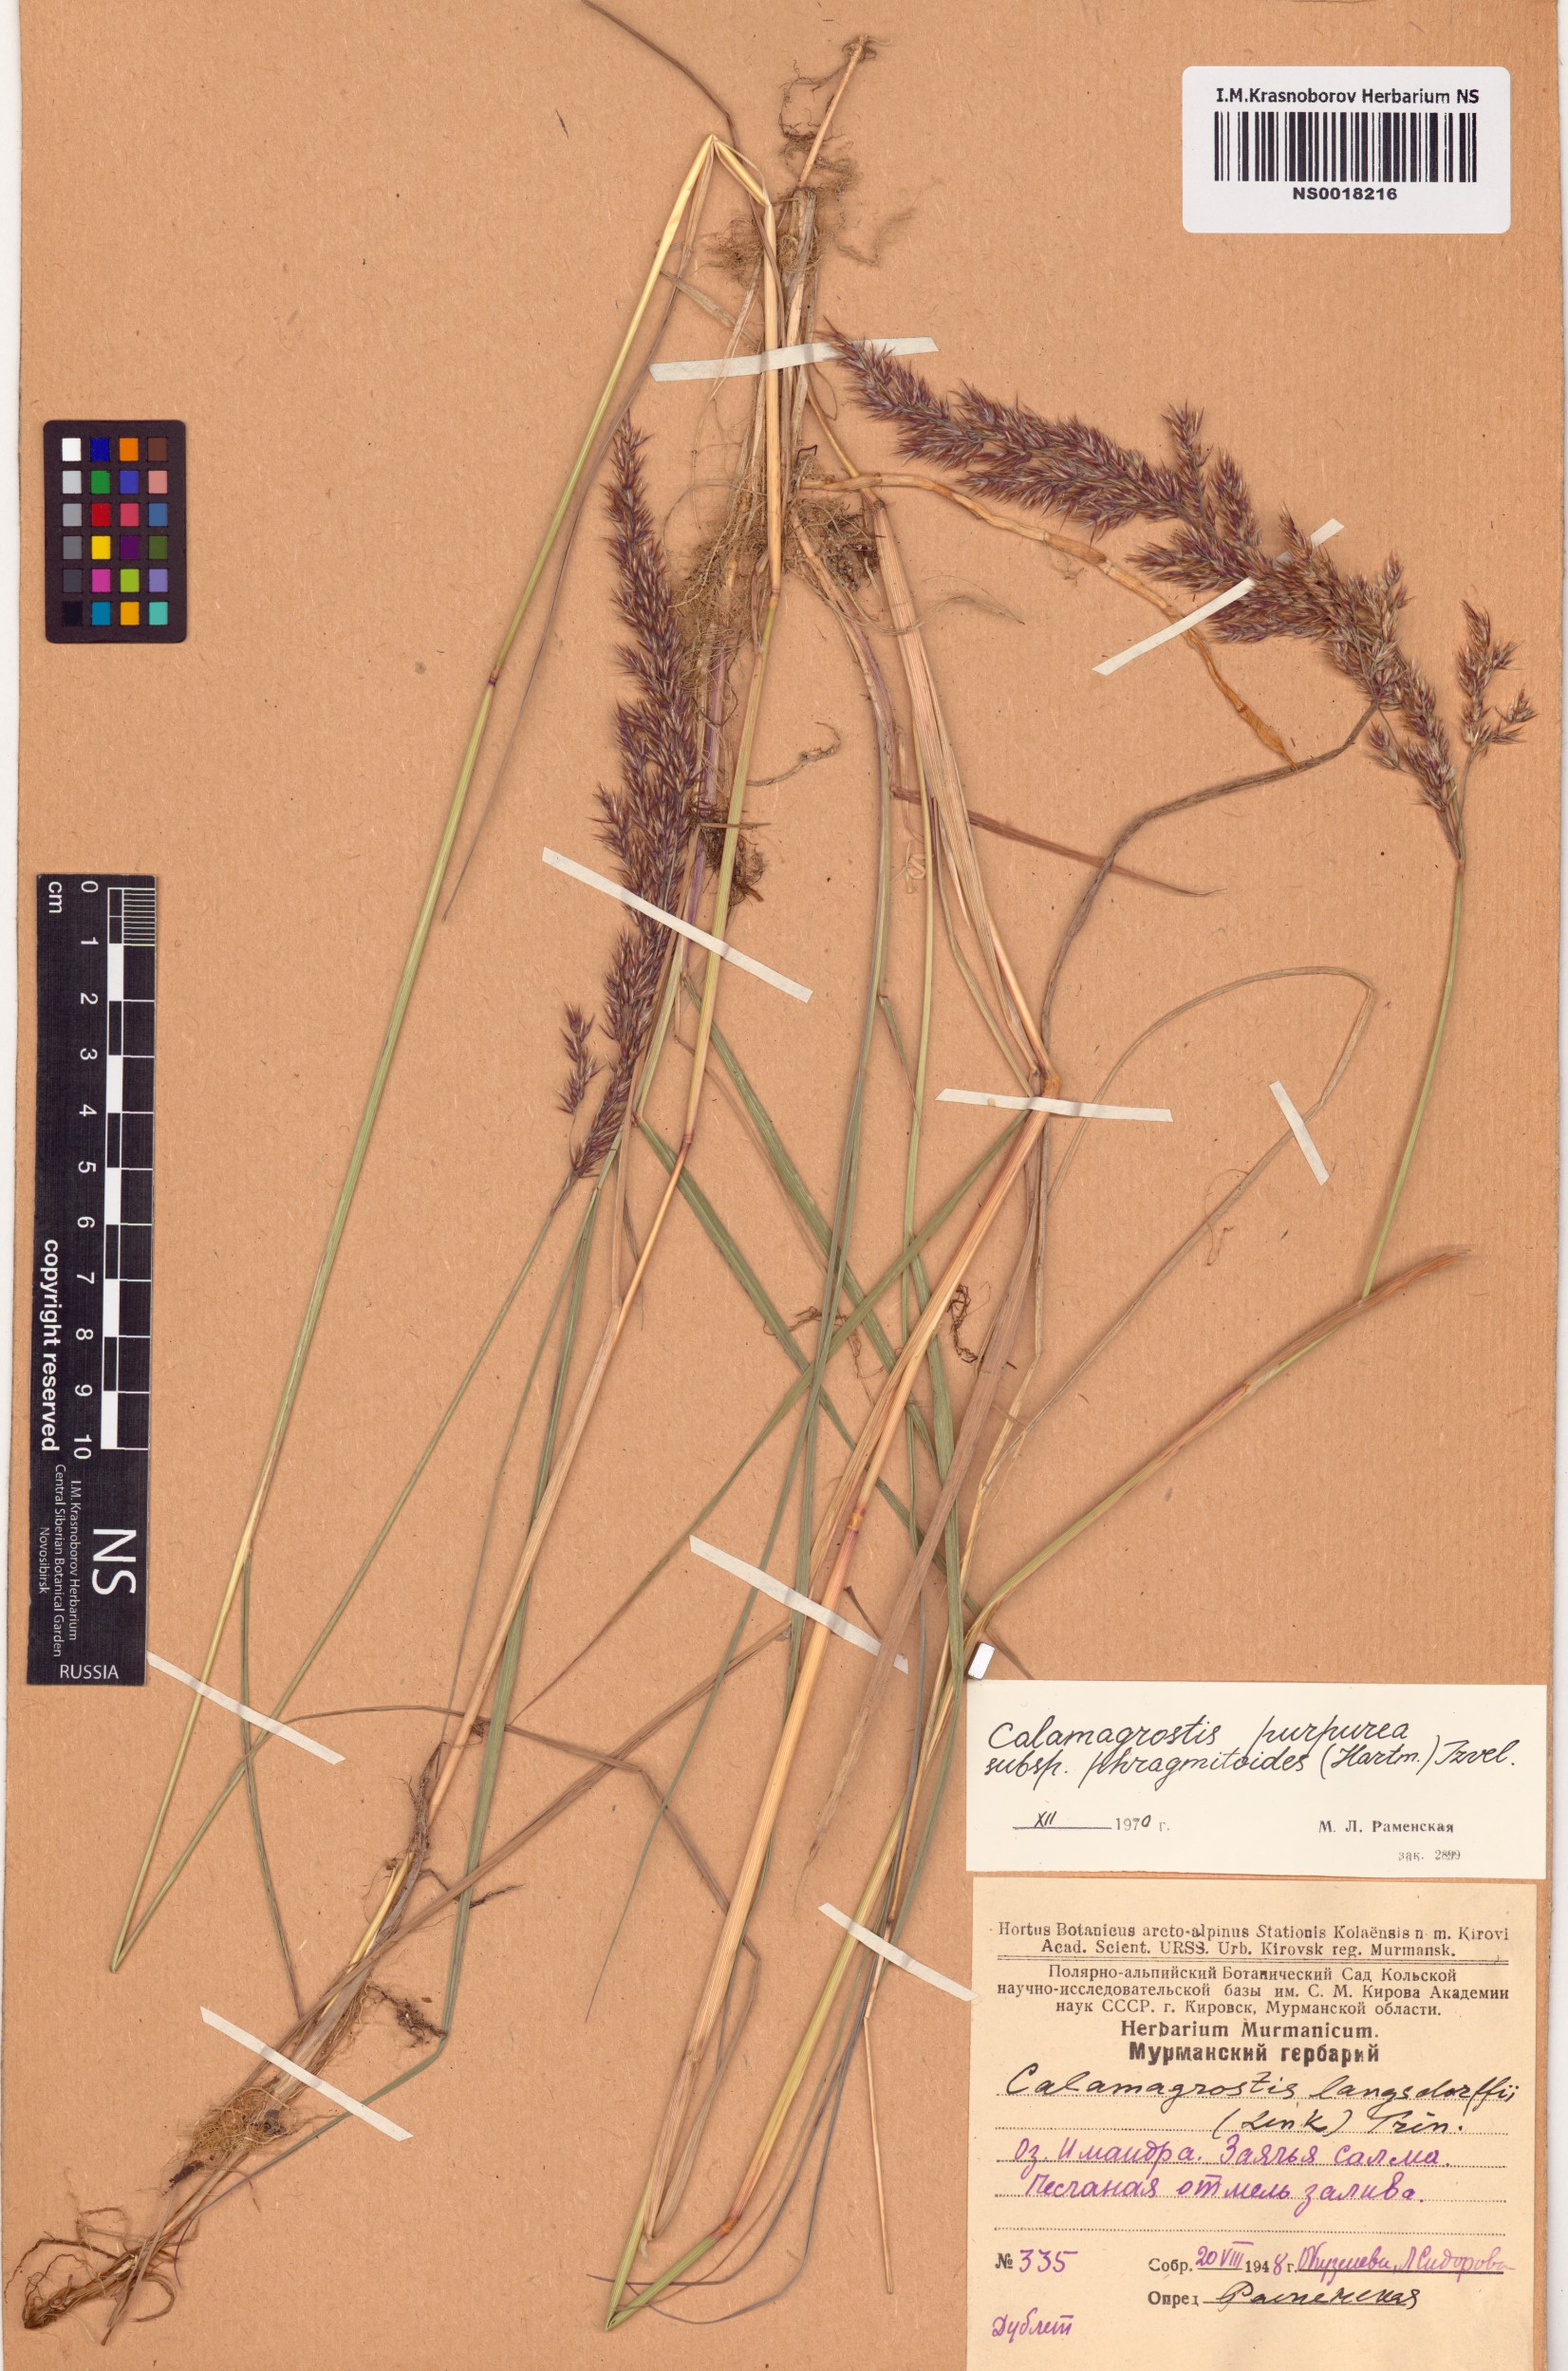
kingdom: Plantae
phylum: Tracheophyta
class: Liliopsida
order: Poales
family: Poaceae
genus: Calamagrostis
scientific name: Calamagrostis purpurea
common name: Scandinavian small-reed
